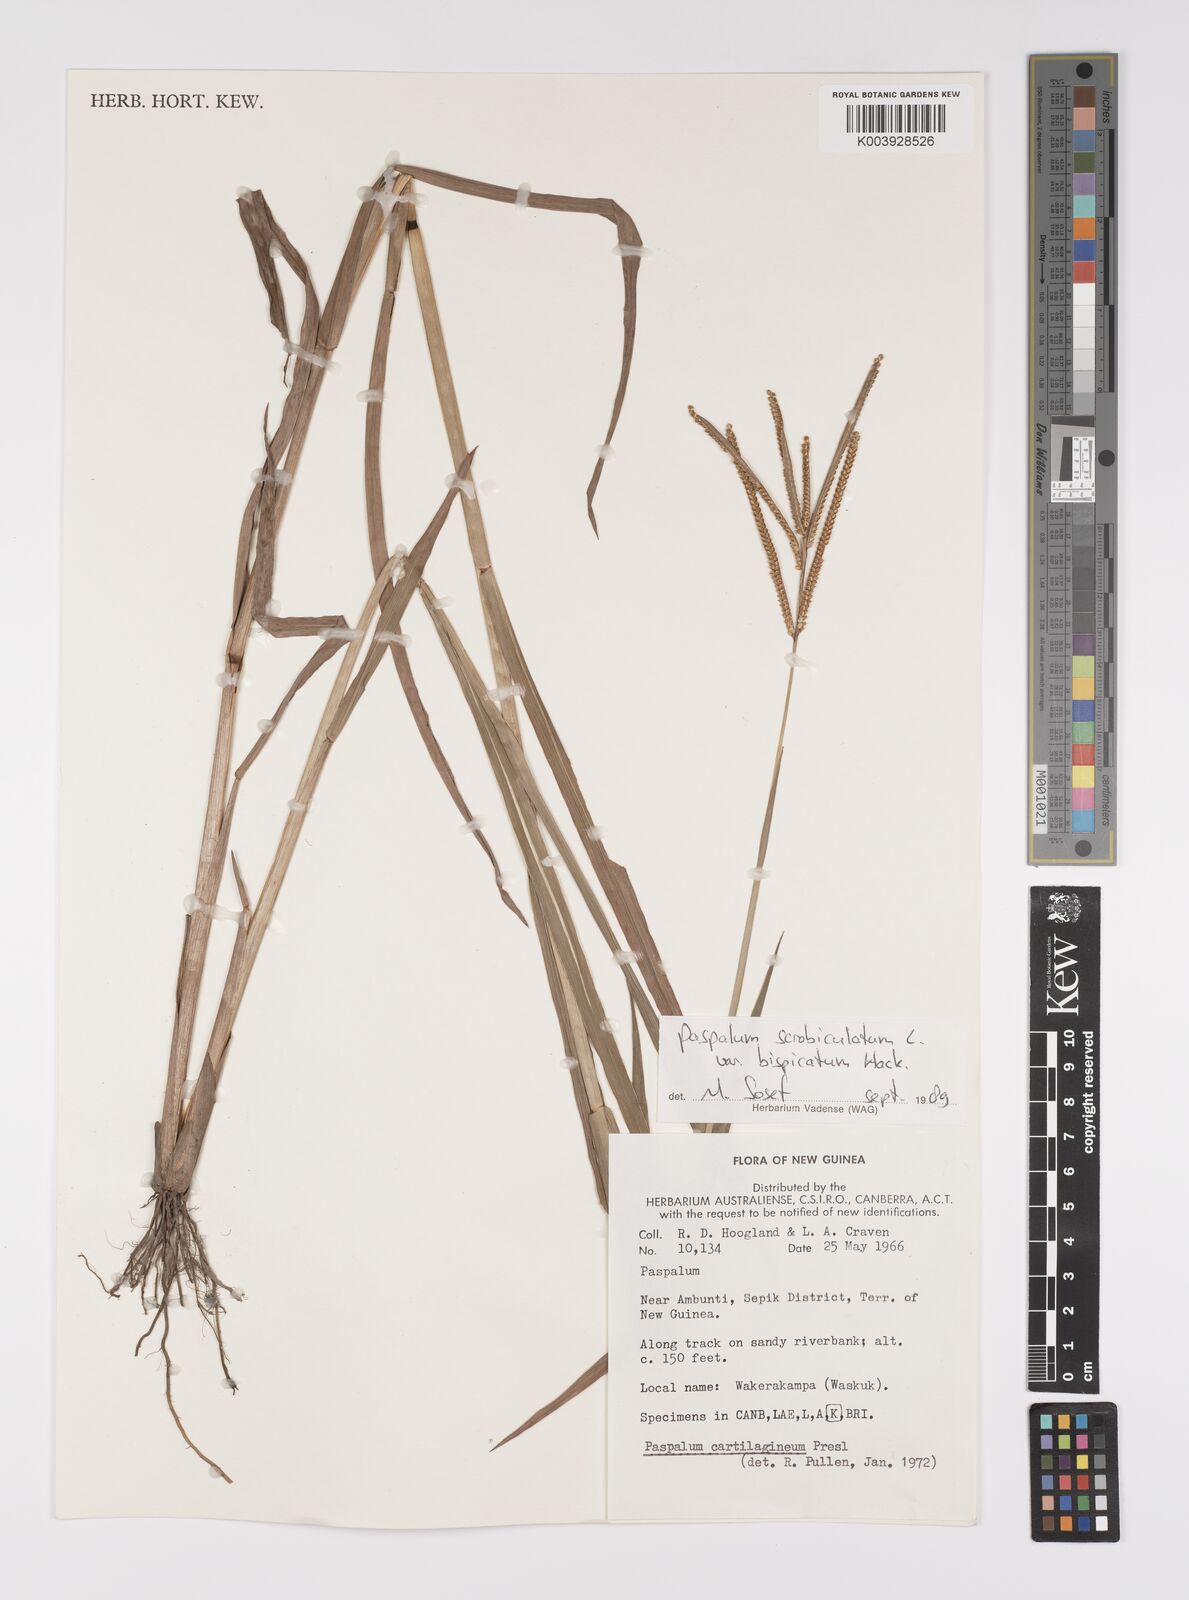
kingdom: Plantae
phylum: Tracheophyta
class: Liliopsida
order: Poales
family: Poaceae
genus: Paspalum
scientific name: Paspalum scrobiculatum
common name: Kodo millet
